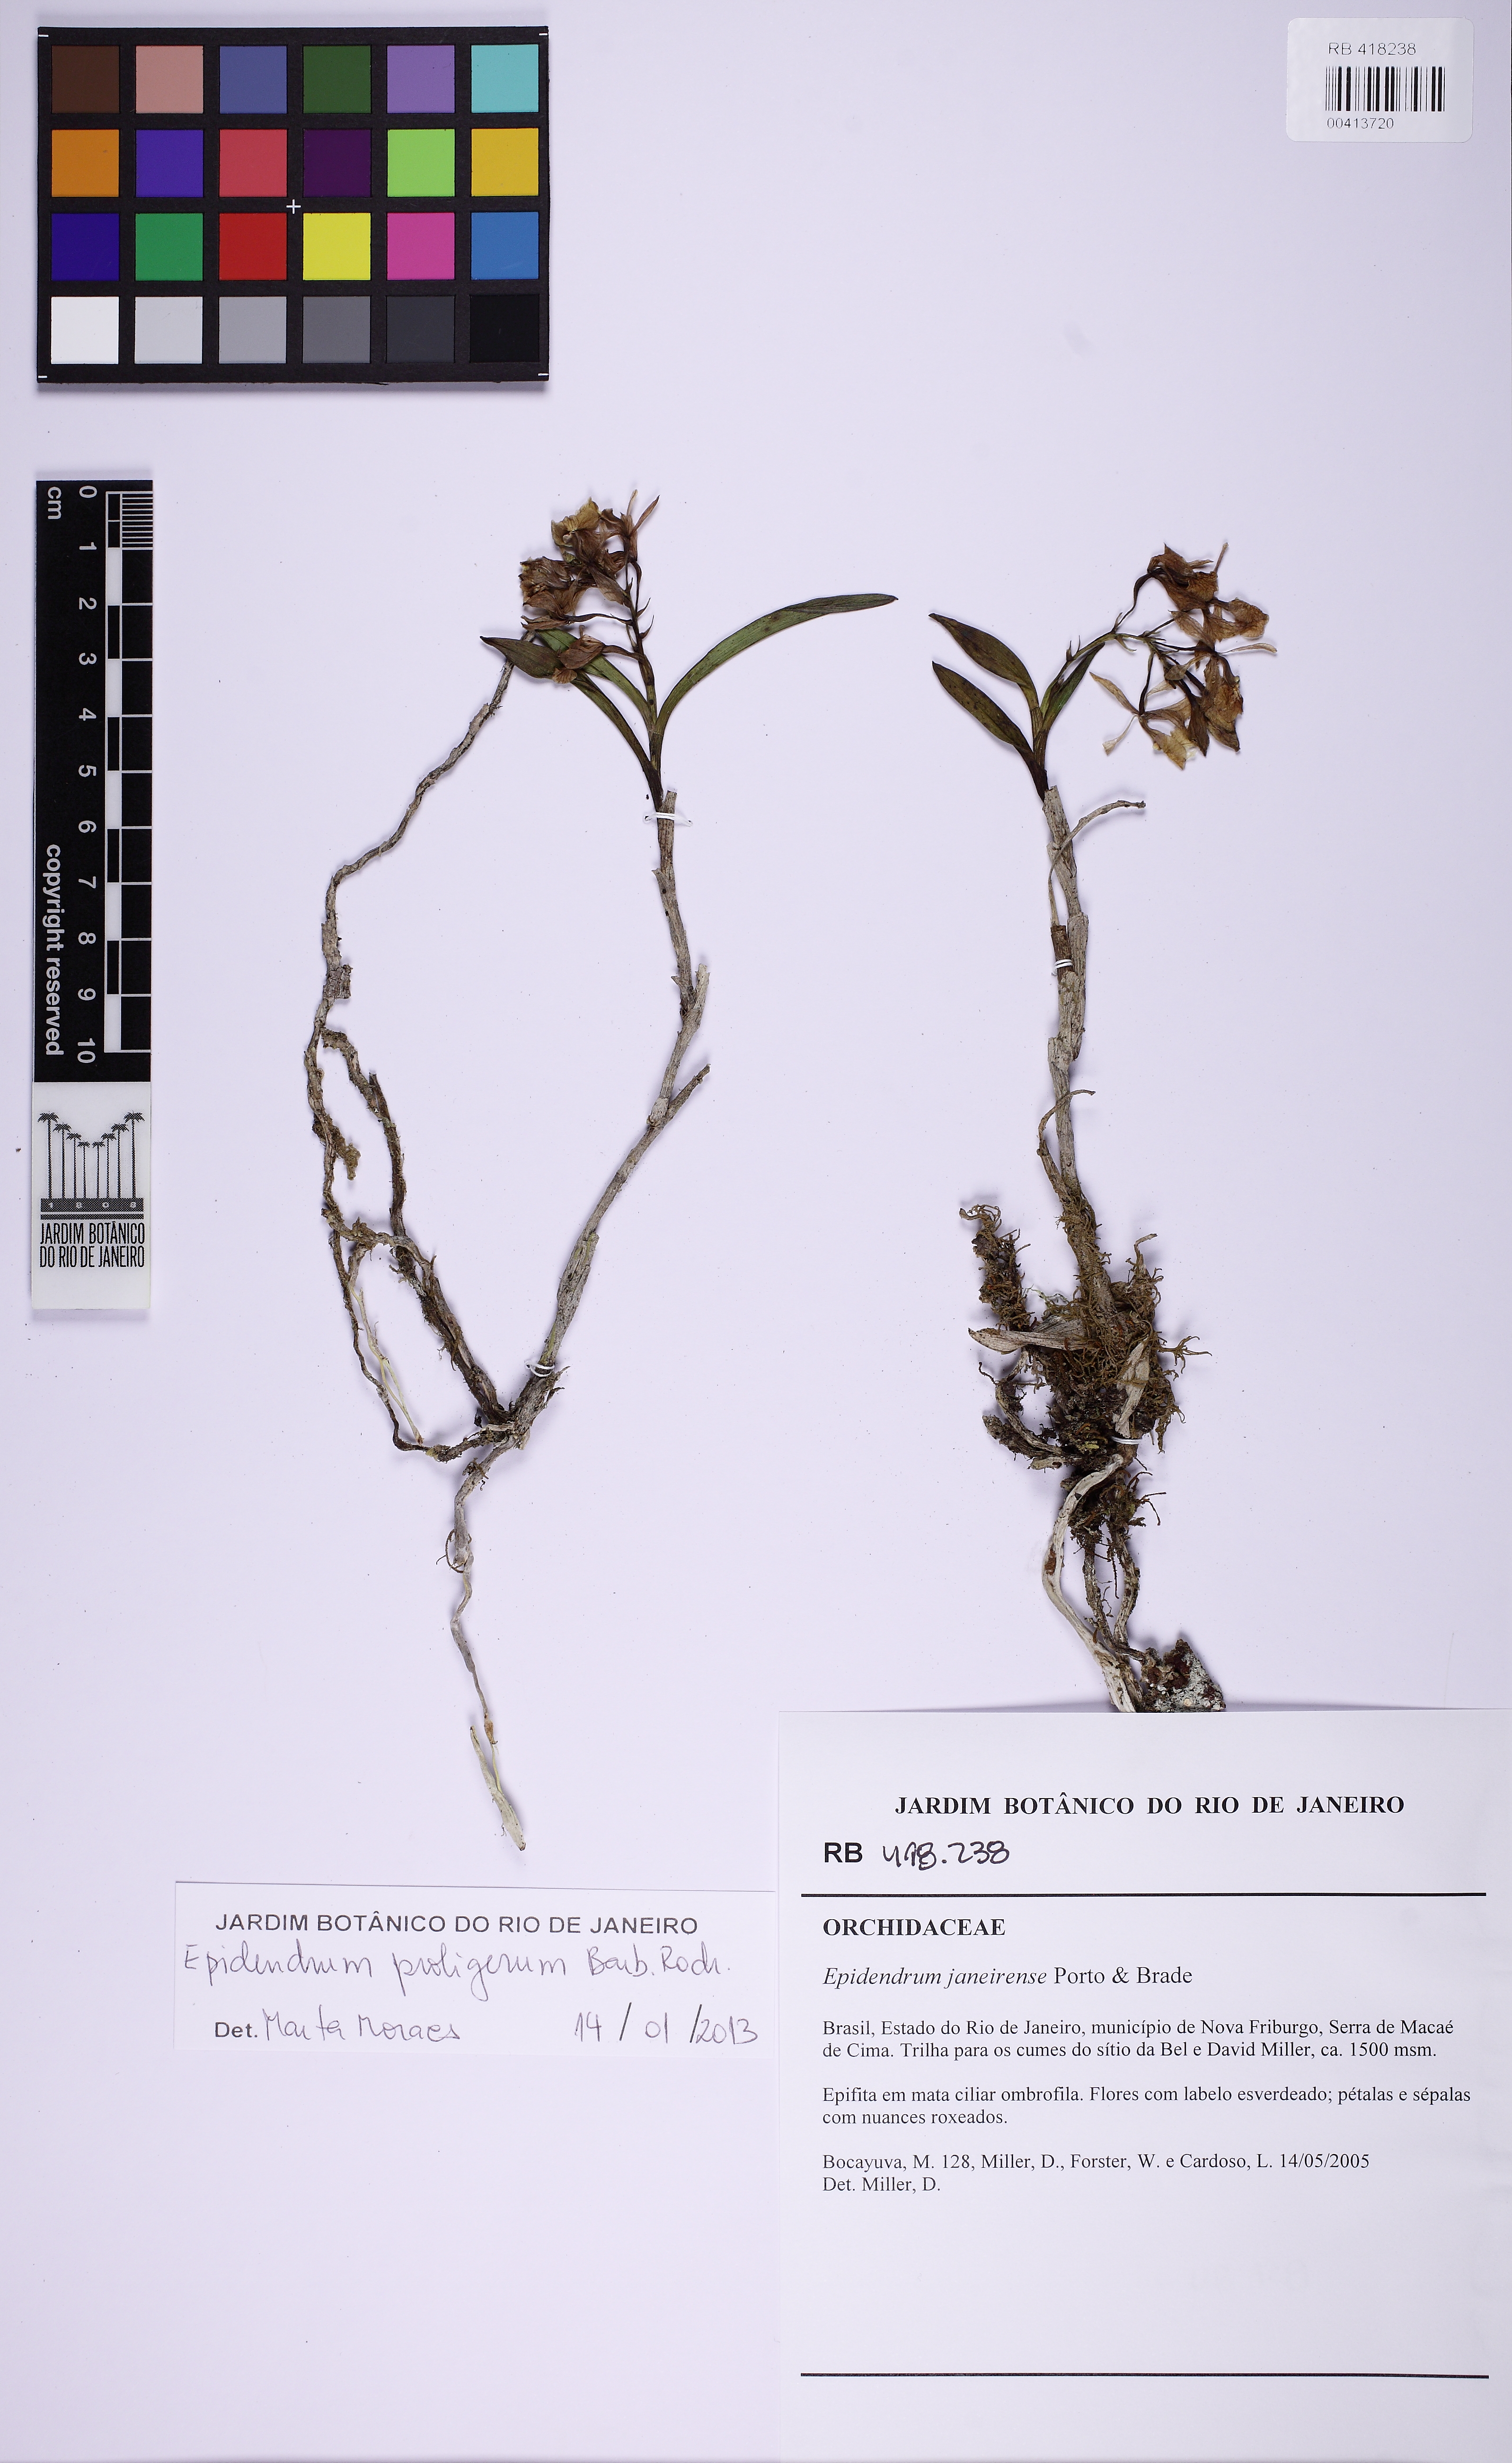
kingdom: Plantae
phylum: Tracheophyta
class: Liliopsida
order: Asparagales
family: Orchidaceae
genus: Epidendrum
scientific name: Epidendrum proligerum
